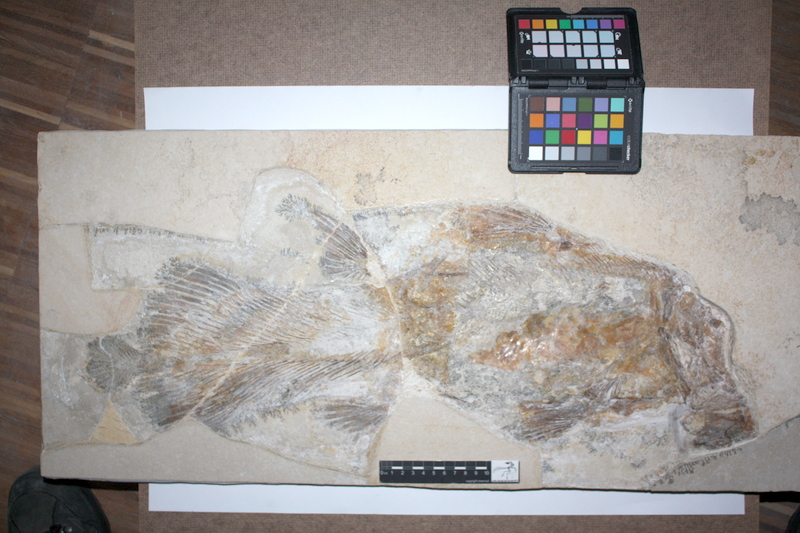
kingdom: Animalia
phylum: Chordata
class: Coelacanthi
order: Coelacanthiformes
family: Laugiidae
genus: Coccoderma
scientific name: Coccoderma bavaricum
